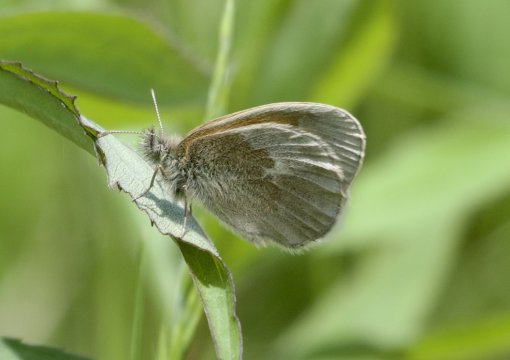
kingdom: Animalia
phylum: Arthropoda
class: Insecta
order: Lepidoptera
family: Nymphalidae
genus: Coenonympha
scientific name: Coenonympha tullia
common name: Large Heath
